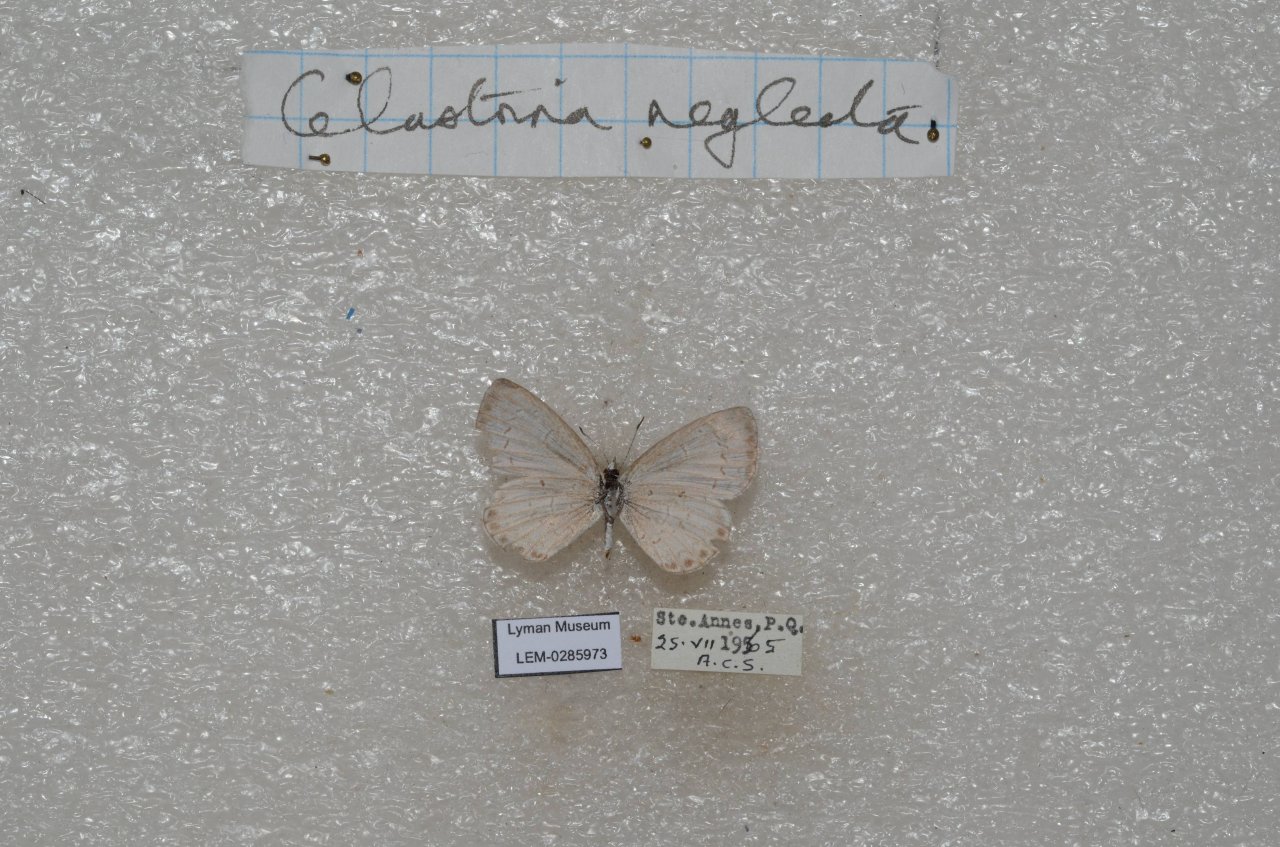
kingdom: Animalia
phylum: Arthropoda
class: Insecta
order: Lepidoptera
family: Lycaenidae
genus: Celastrina
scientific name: Celastrina lucia
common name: Northern Spring Azure
